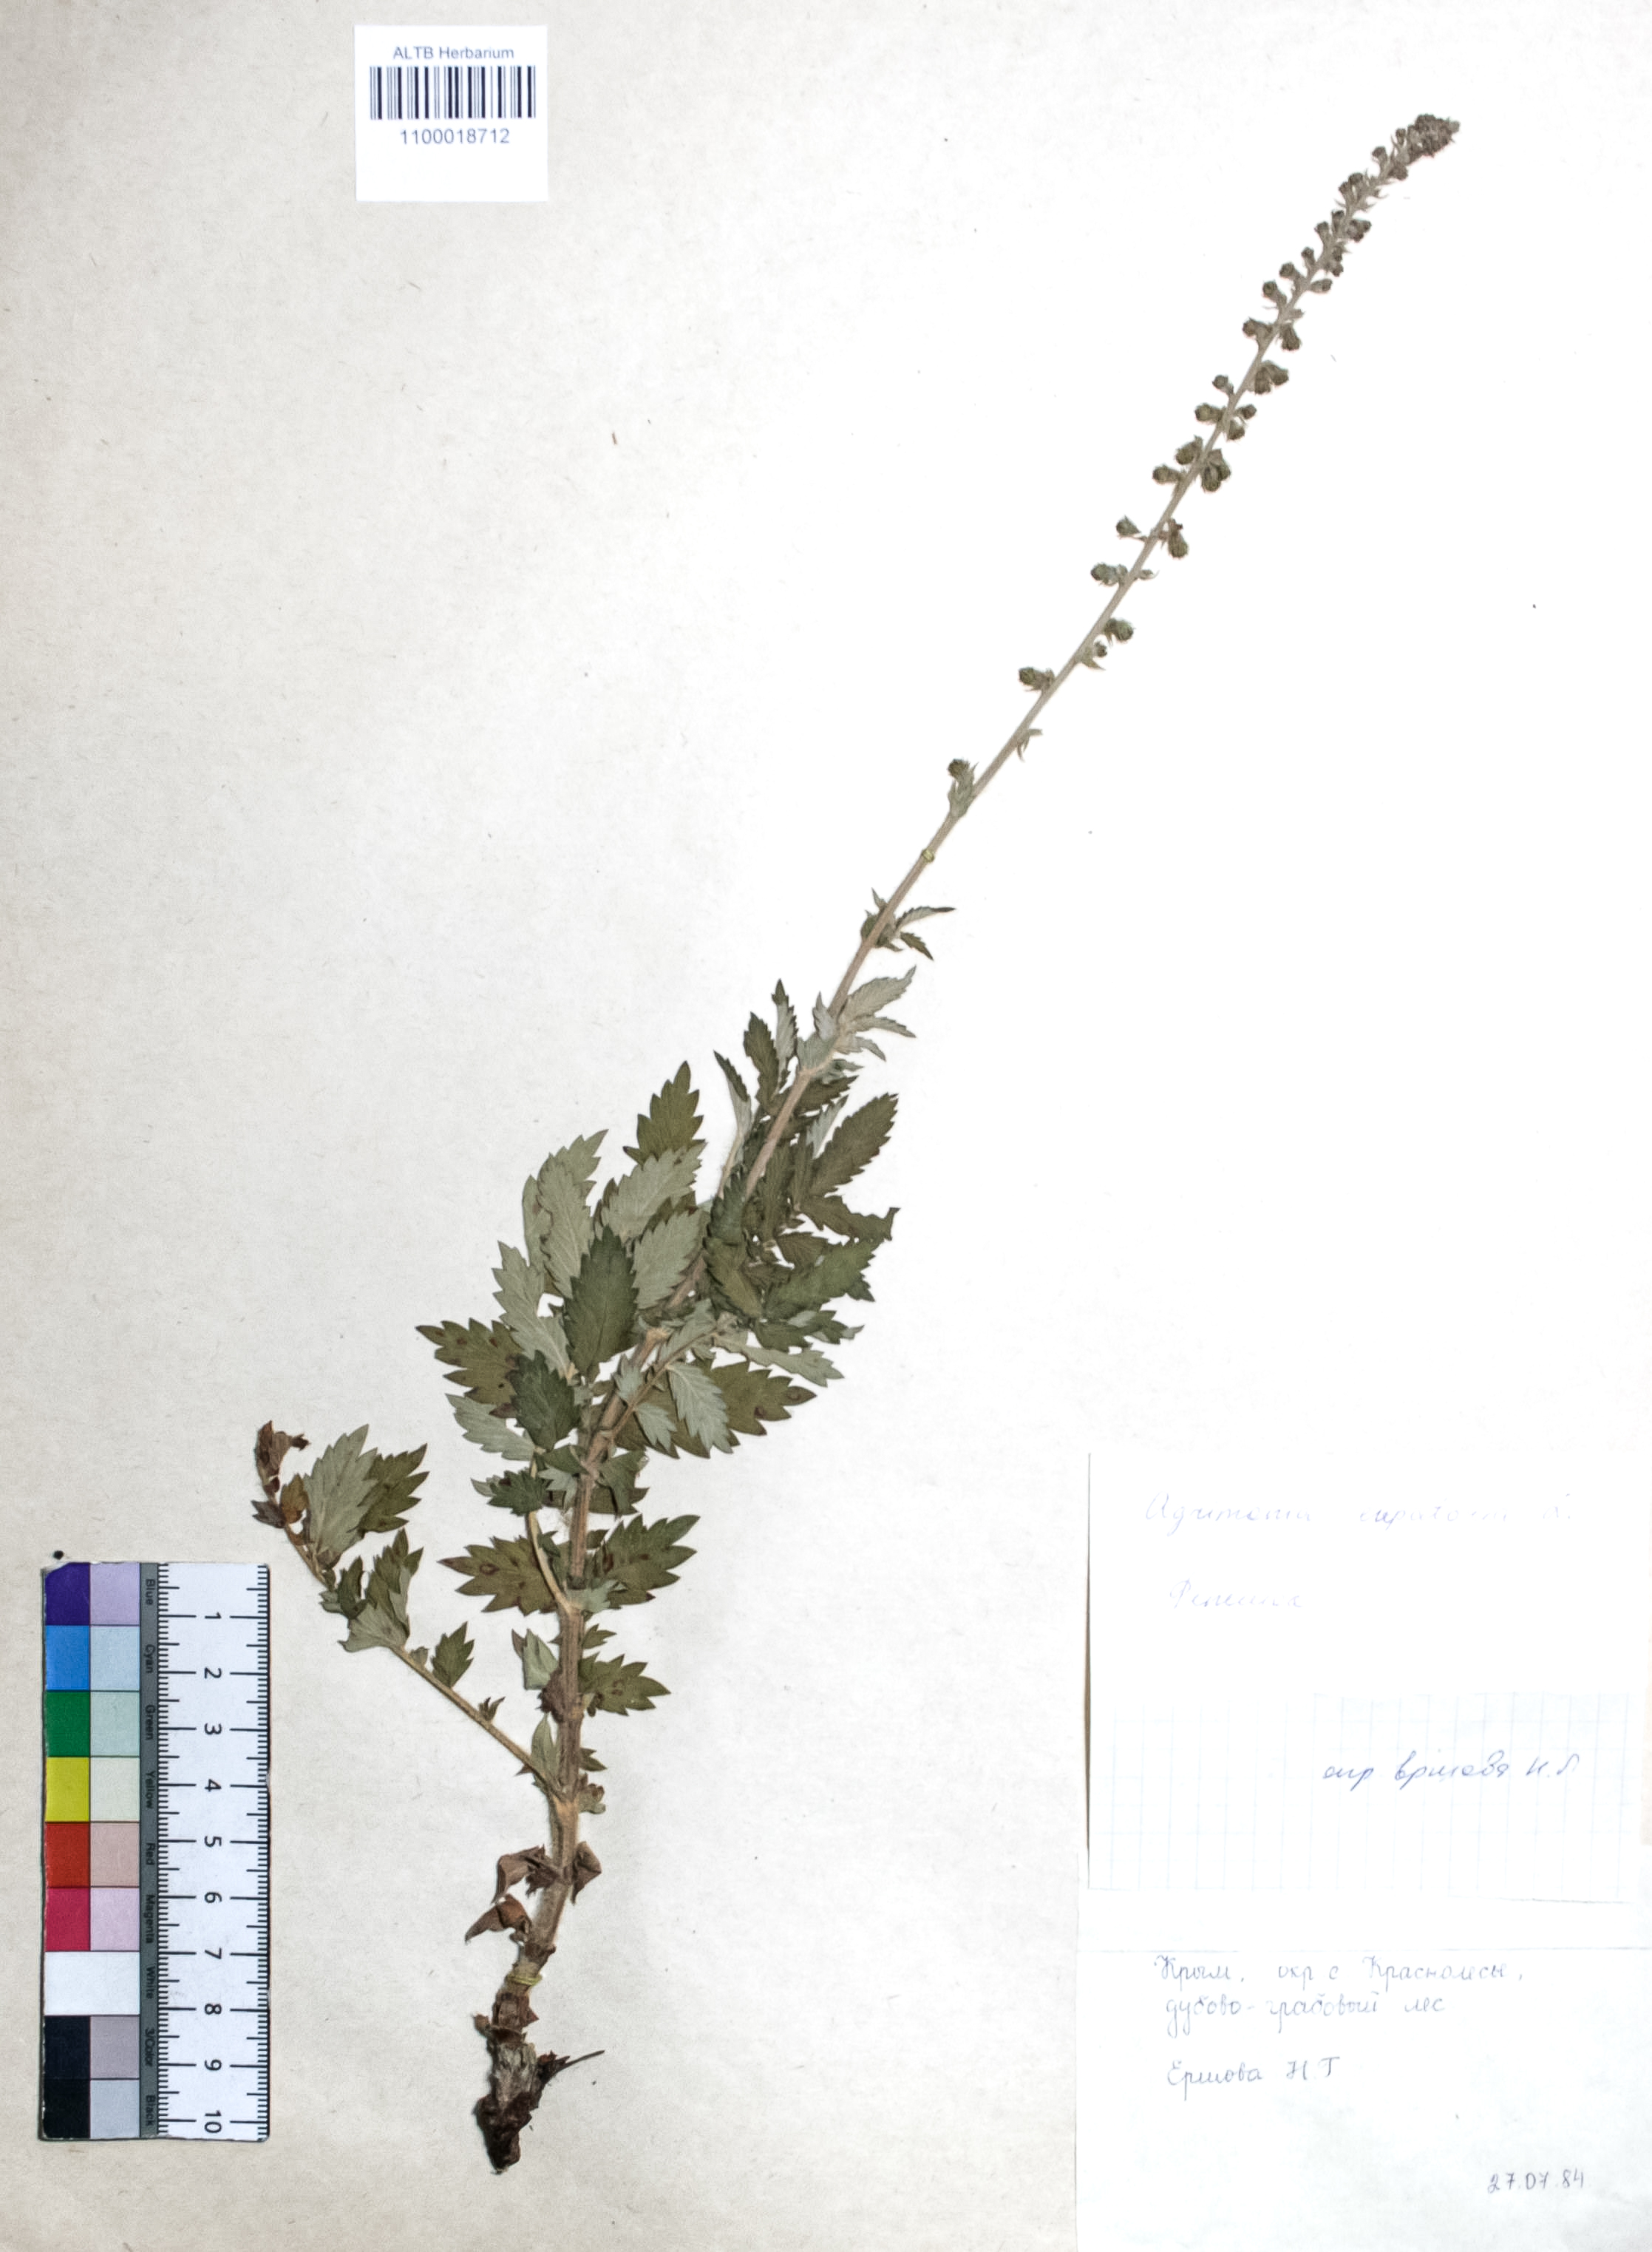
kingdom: Plantae
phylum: Tracheophyta
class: Magnoliopsida
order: Rosales
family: Rosaceae
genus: Agrimonia
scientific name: Agrimonia eupatoria
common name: Agrimony
